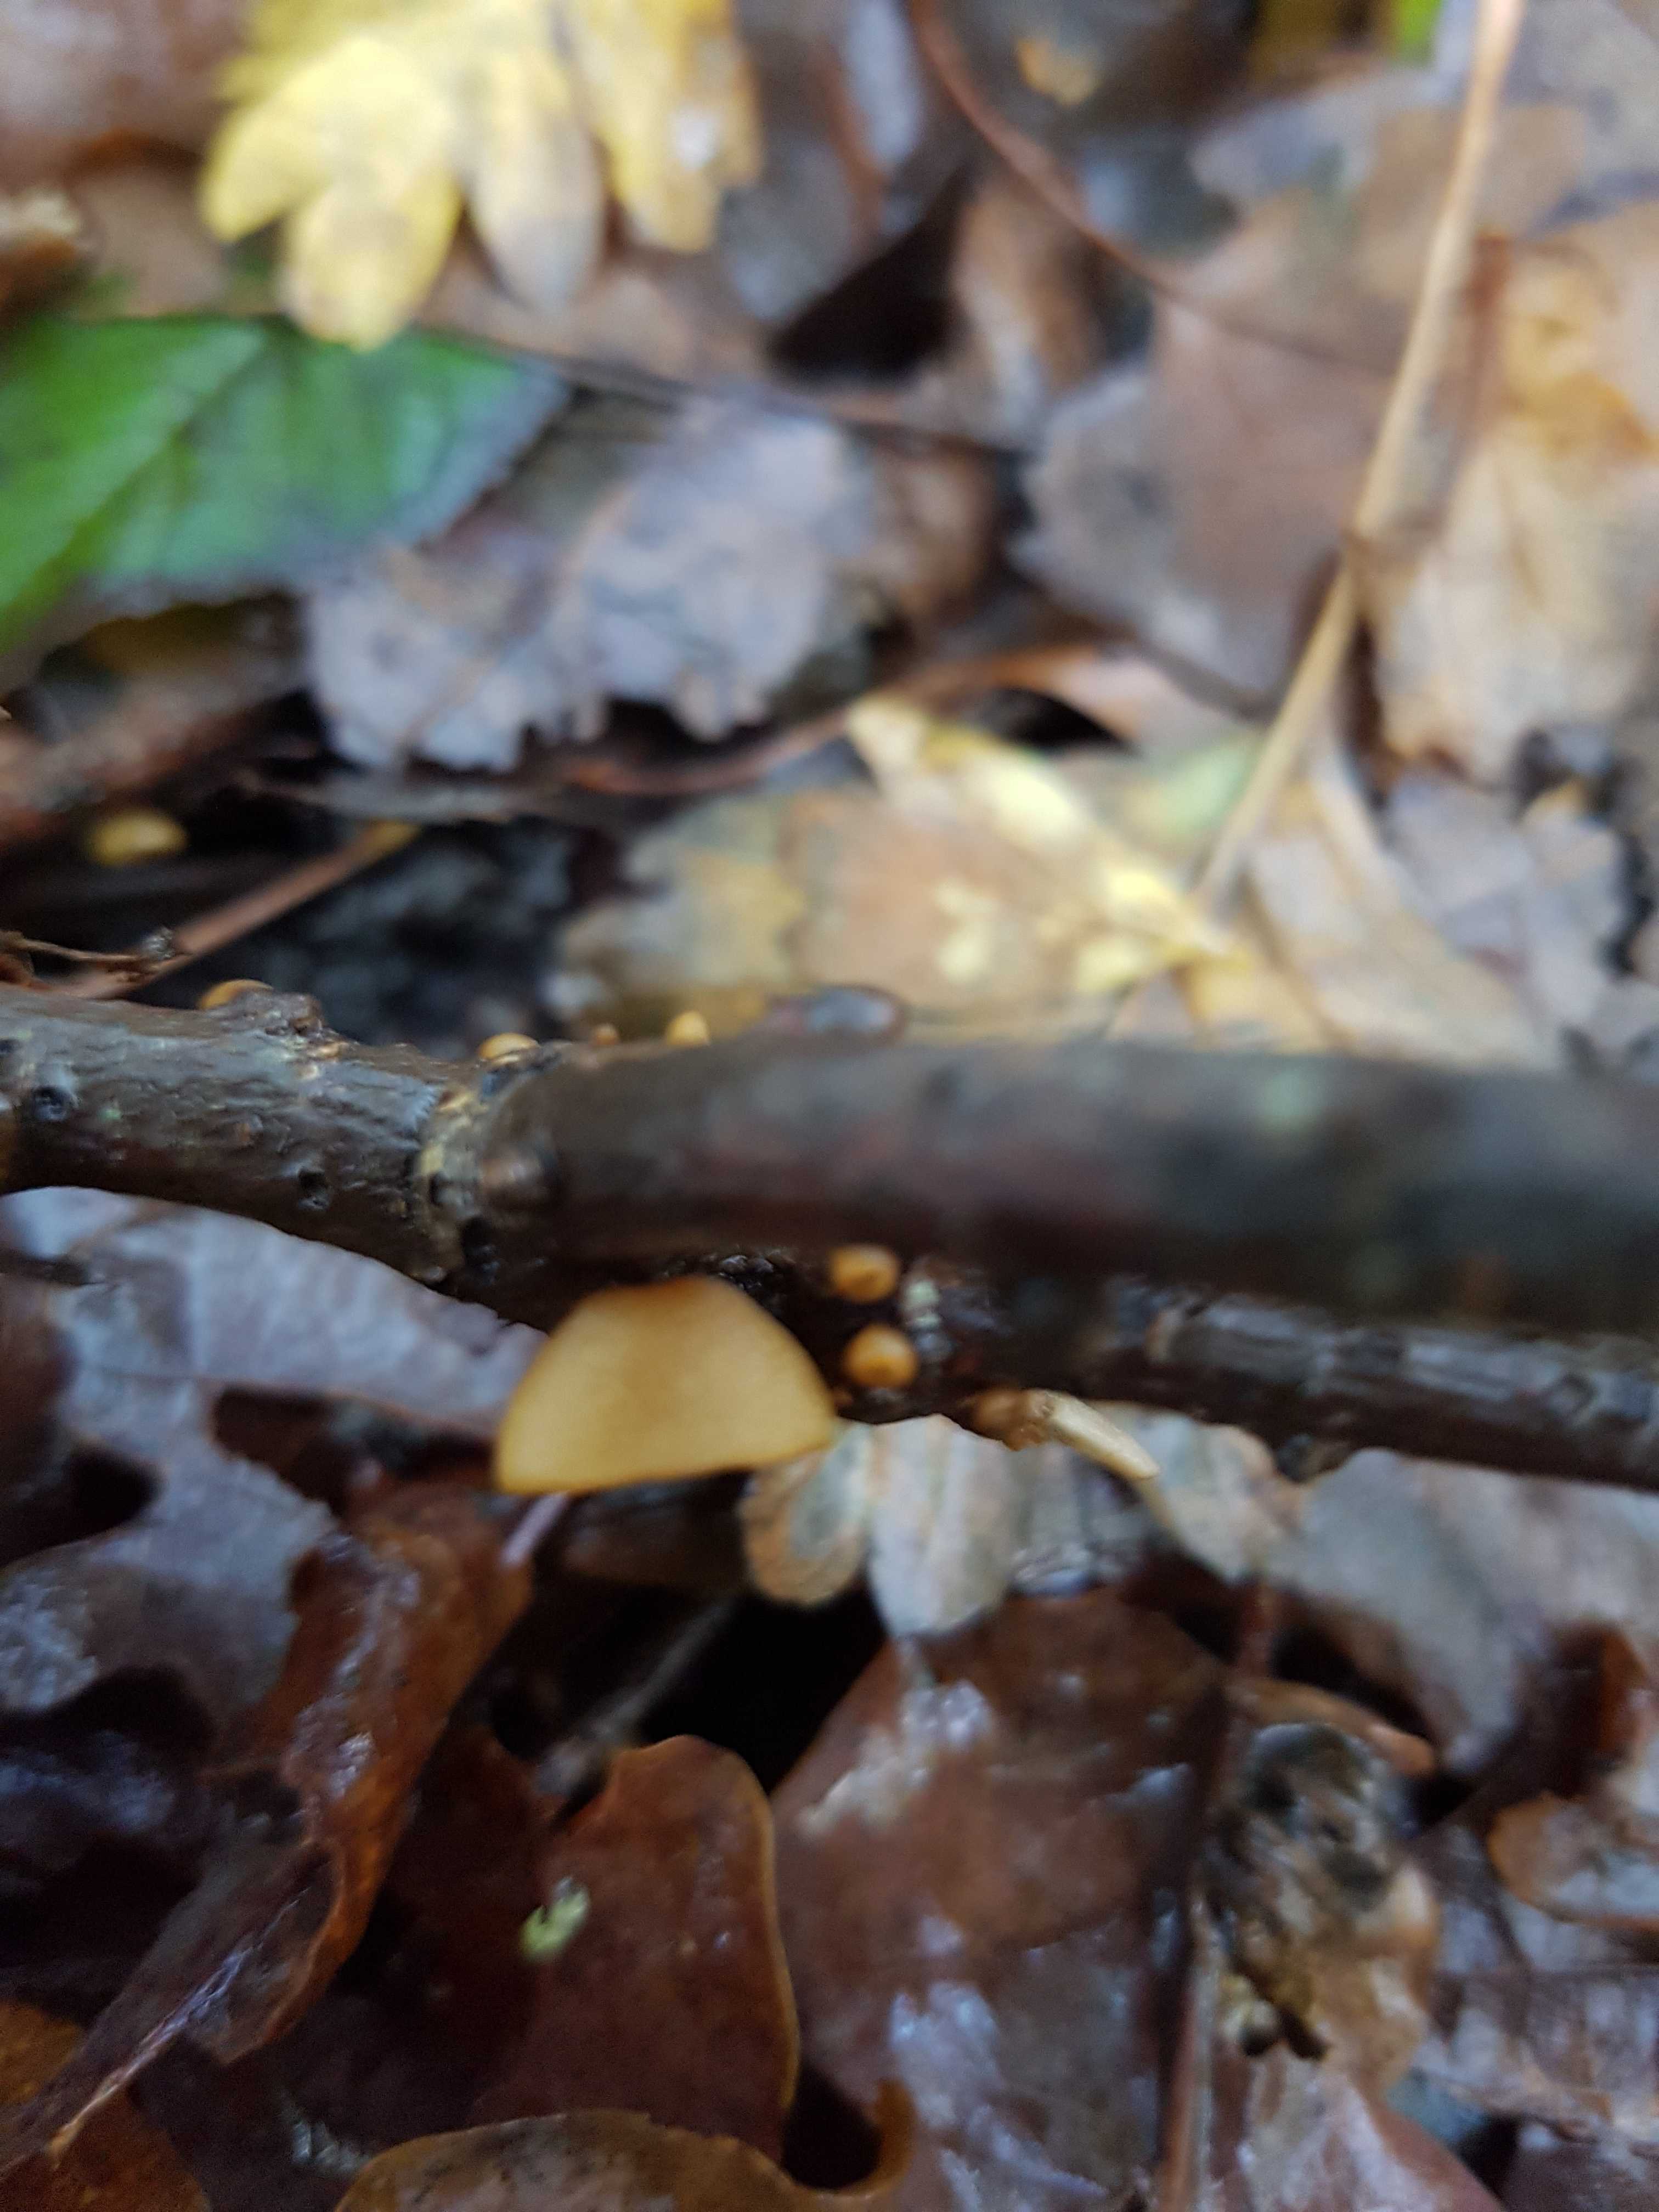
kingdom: Fungi
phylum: Ascomycota
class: Leotiomycetes
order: Helotiales
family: Rutstroemiaceae
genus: Rutstroemia
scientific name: Rutstroemia firma
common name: gren-brunskive
